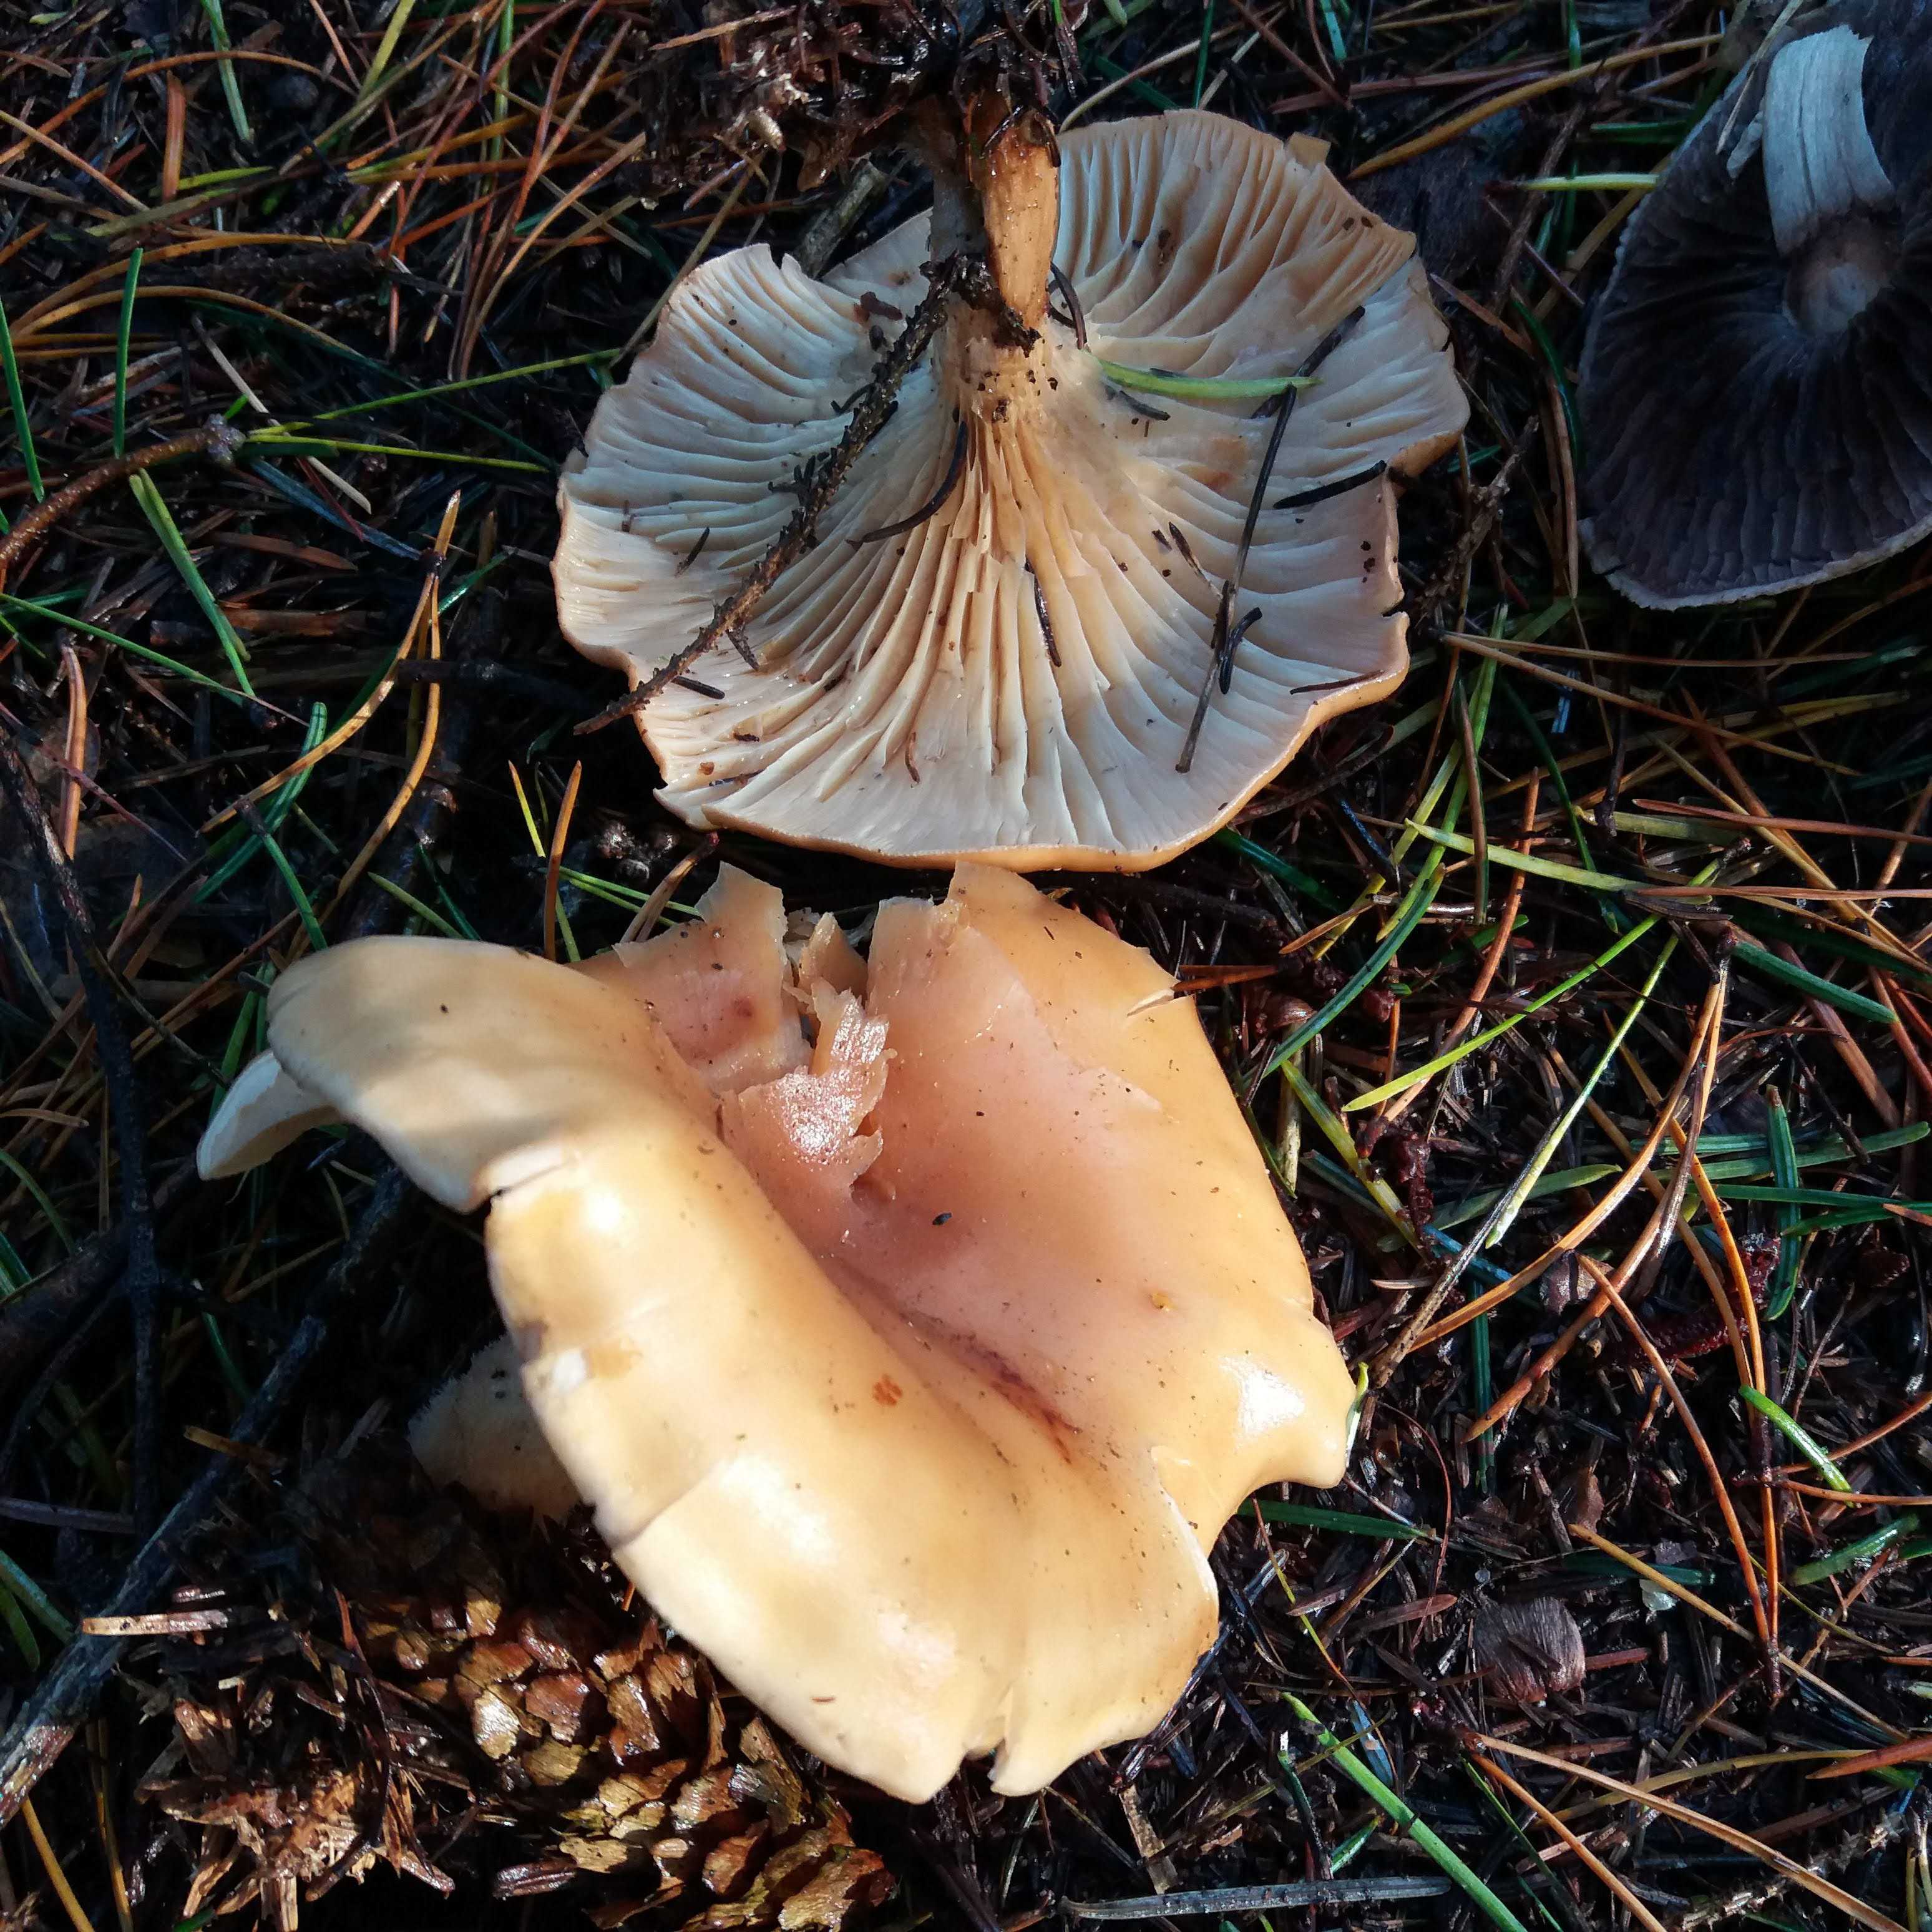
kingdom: Fungi
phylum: Basidiomycota
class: Agaricomycetes
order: Agaricales
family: Tricholomataceae
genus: Paralepista
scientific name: Paralepista flaccida
